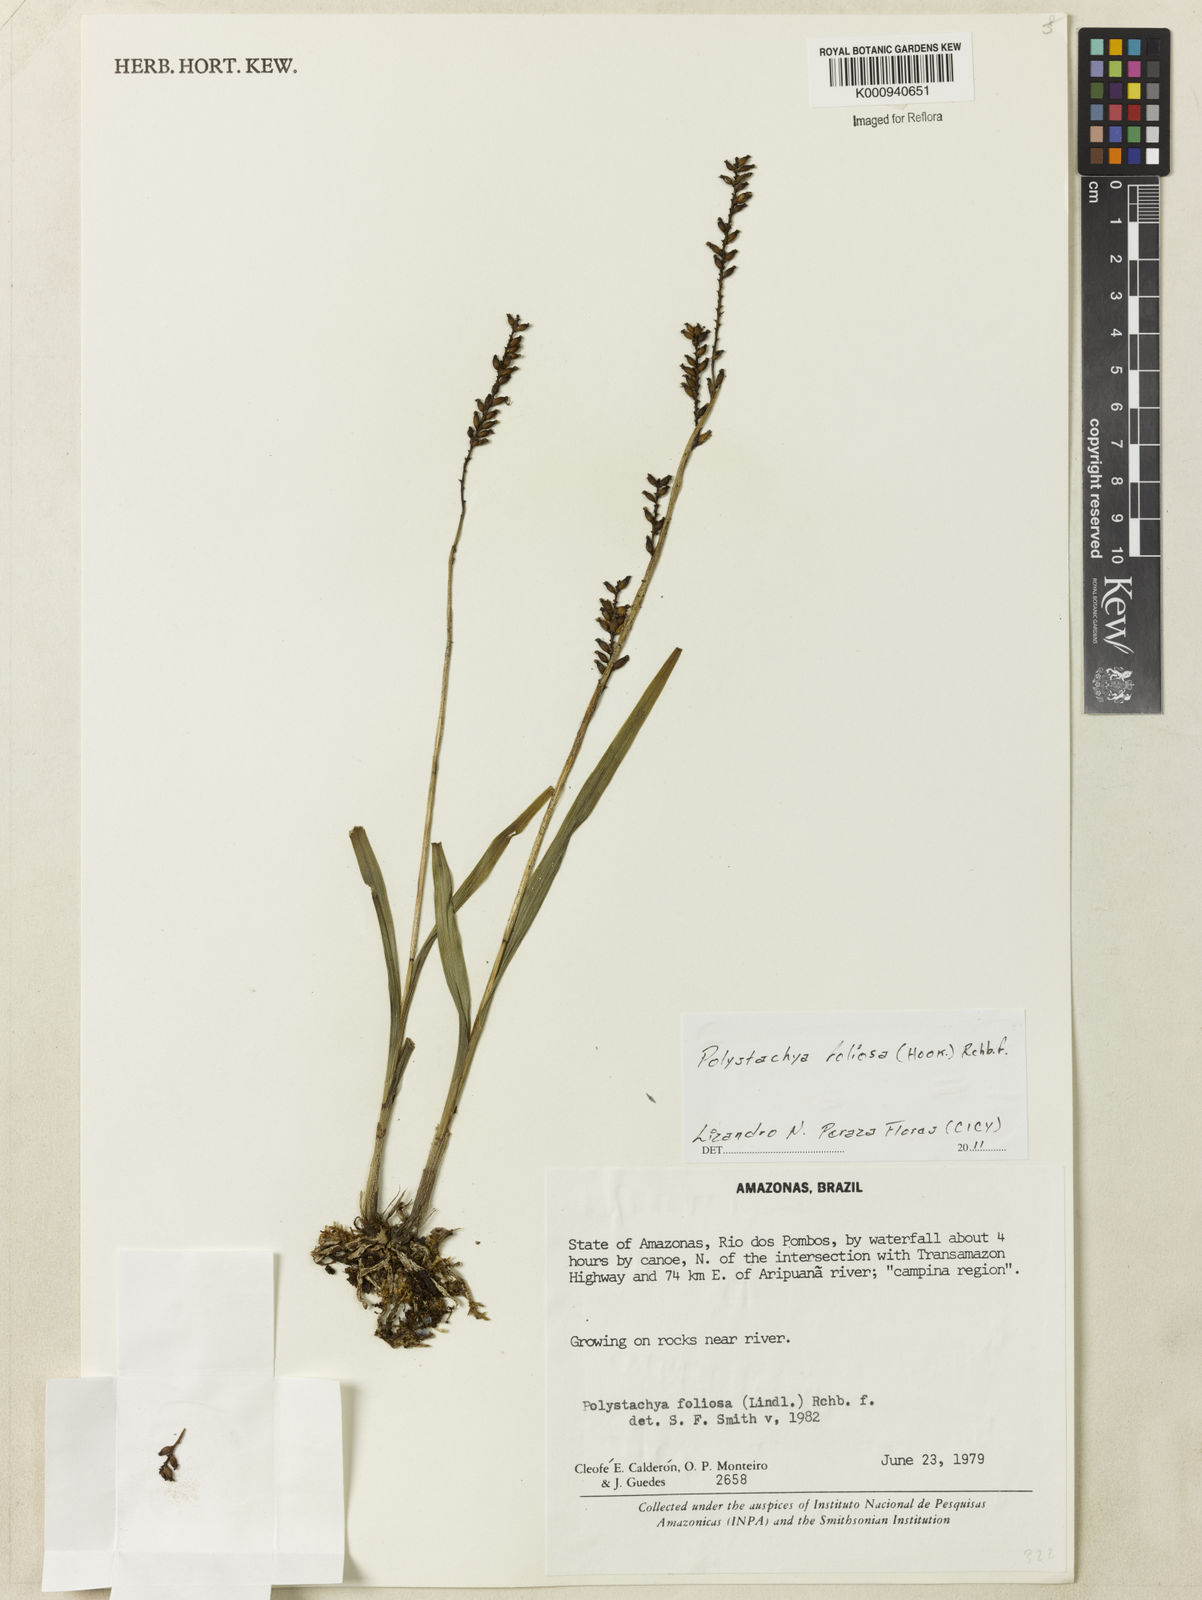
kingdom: Plantae
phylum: Tracheophyta
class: Liliopsida
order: Asparagales
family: Orchidaceae
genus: Polystachya
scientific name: Polystachya foliosa
